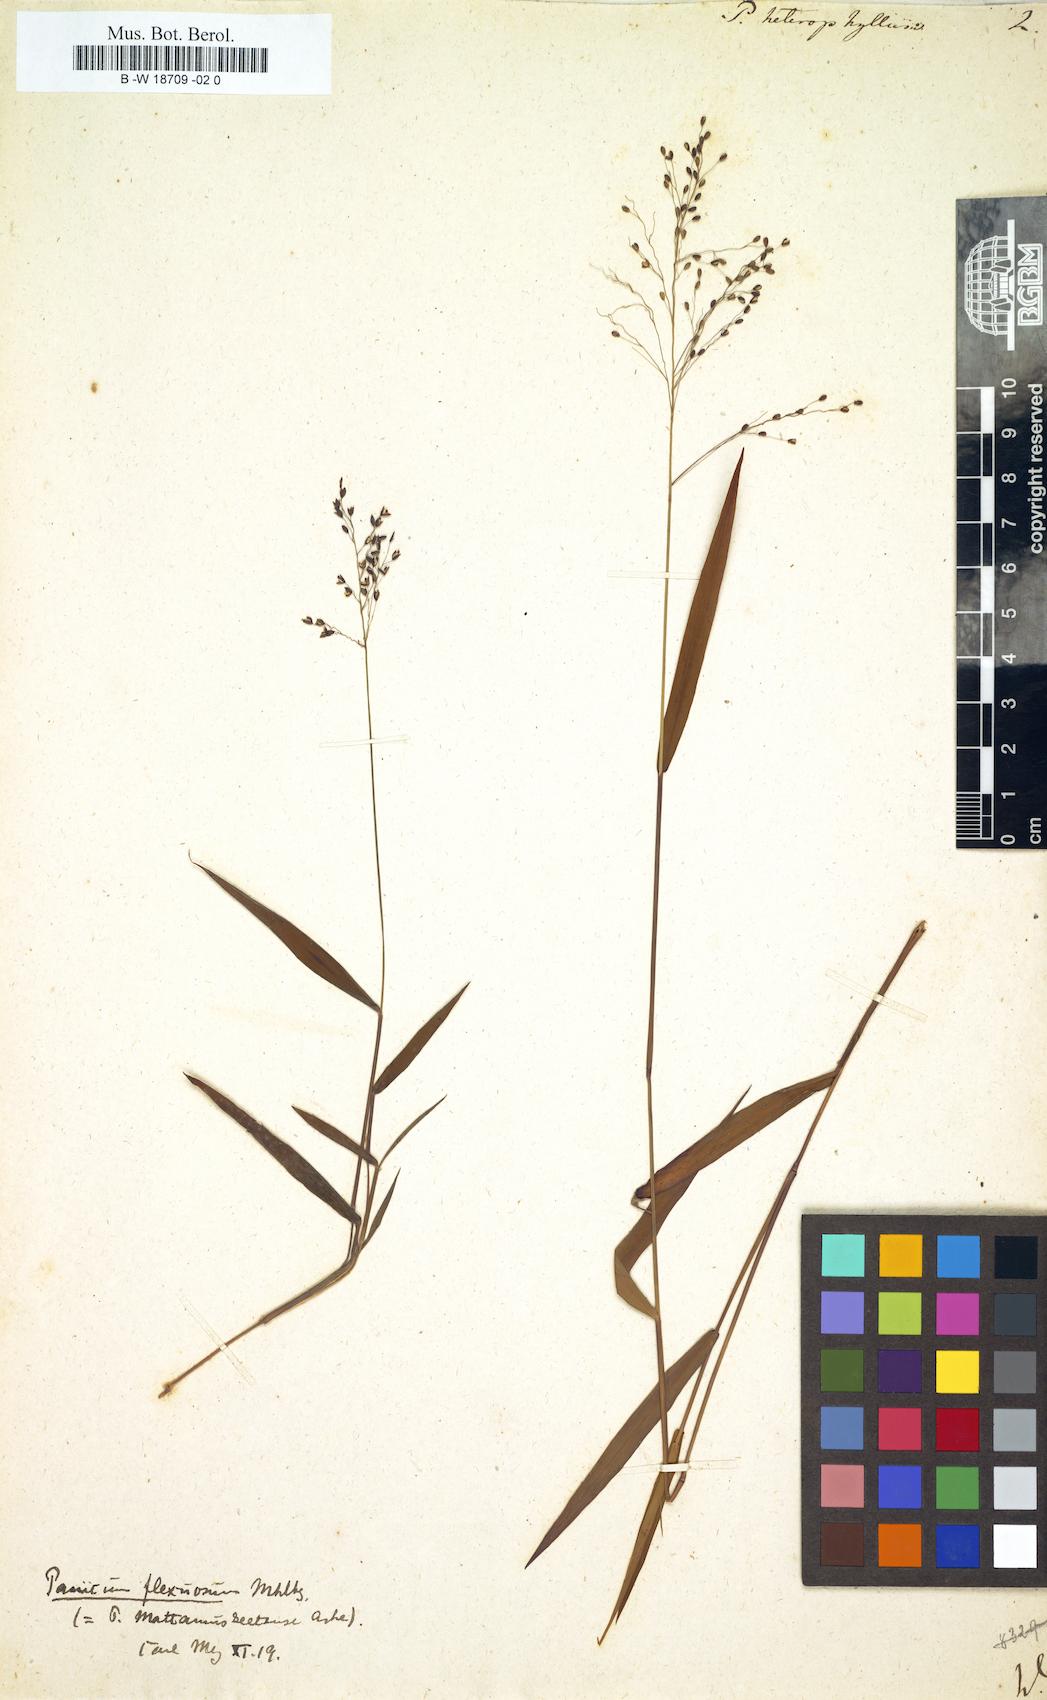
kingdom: Plantae
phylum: Tracheophyta
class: Liliopsida
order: Poales
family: Poaceae
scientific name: Poaceae
